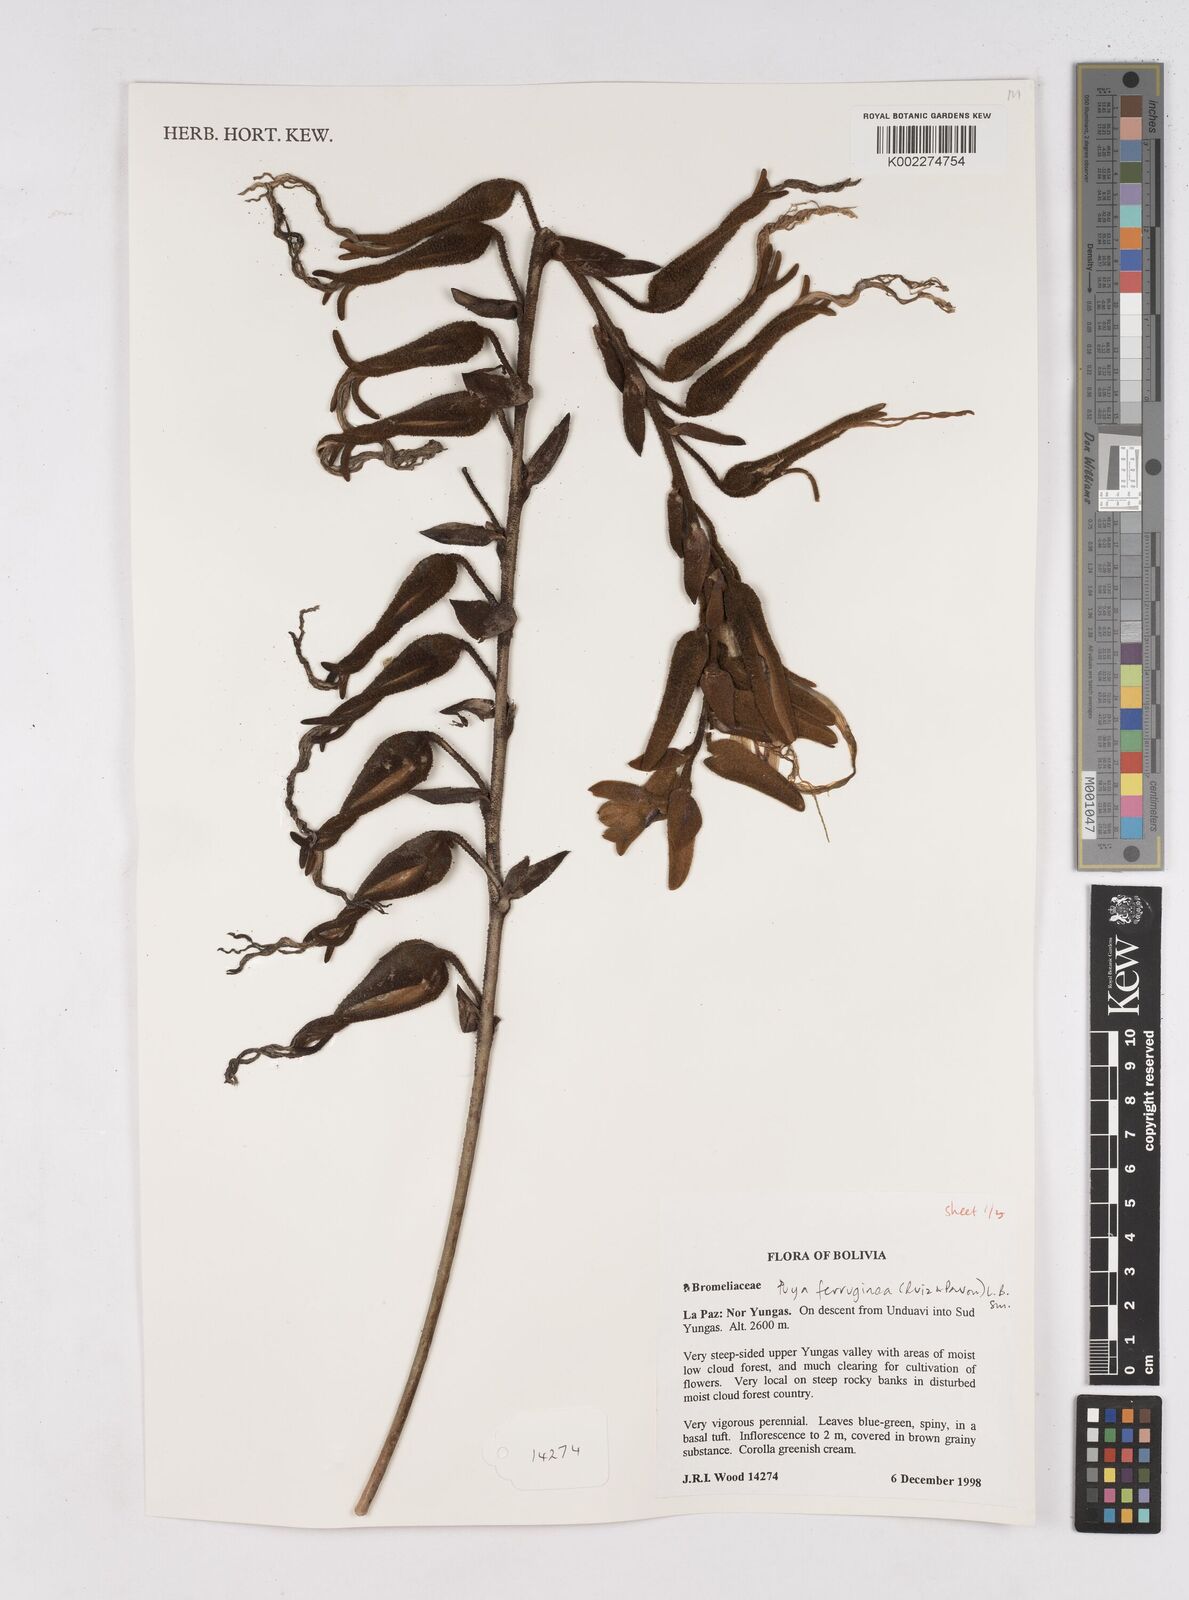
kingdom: Plantae
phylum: Tracheophyta
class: Liliopsida
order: Poales
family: Bromeliaceae
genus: Puya
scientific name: Puya ferruginea
